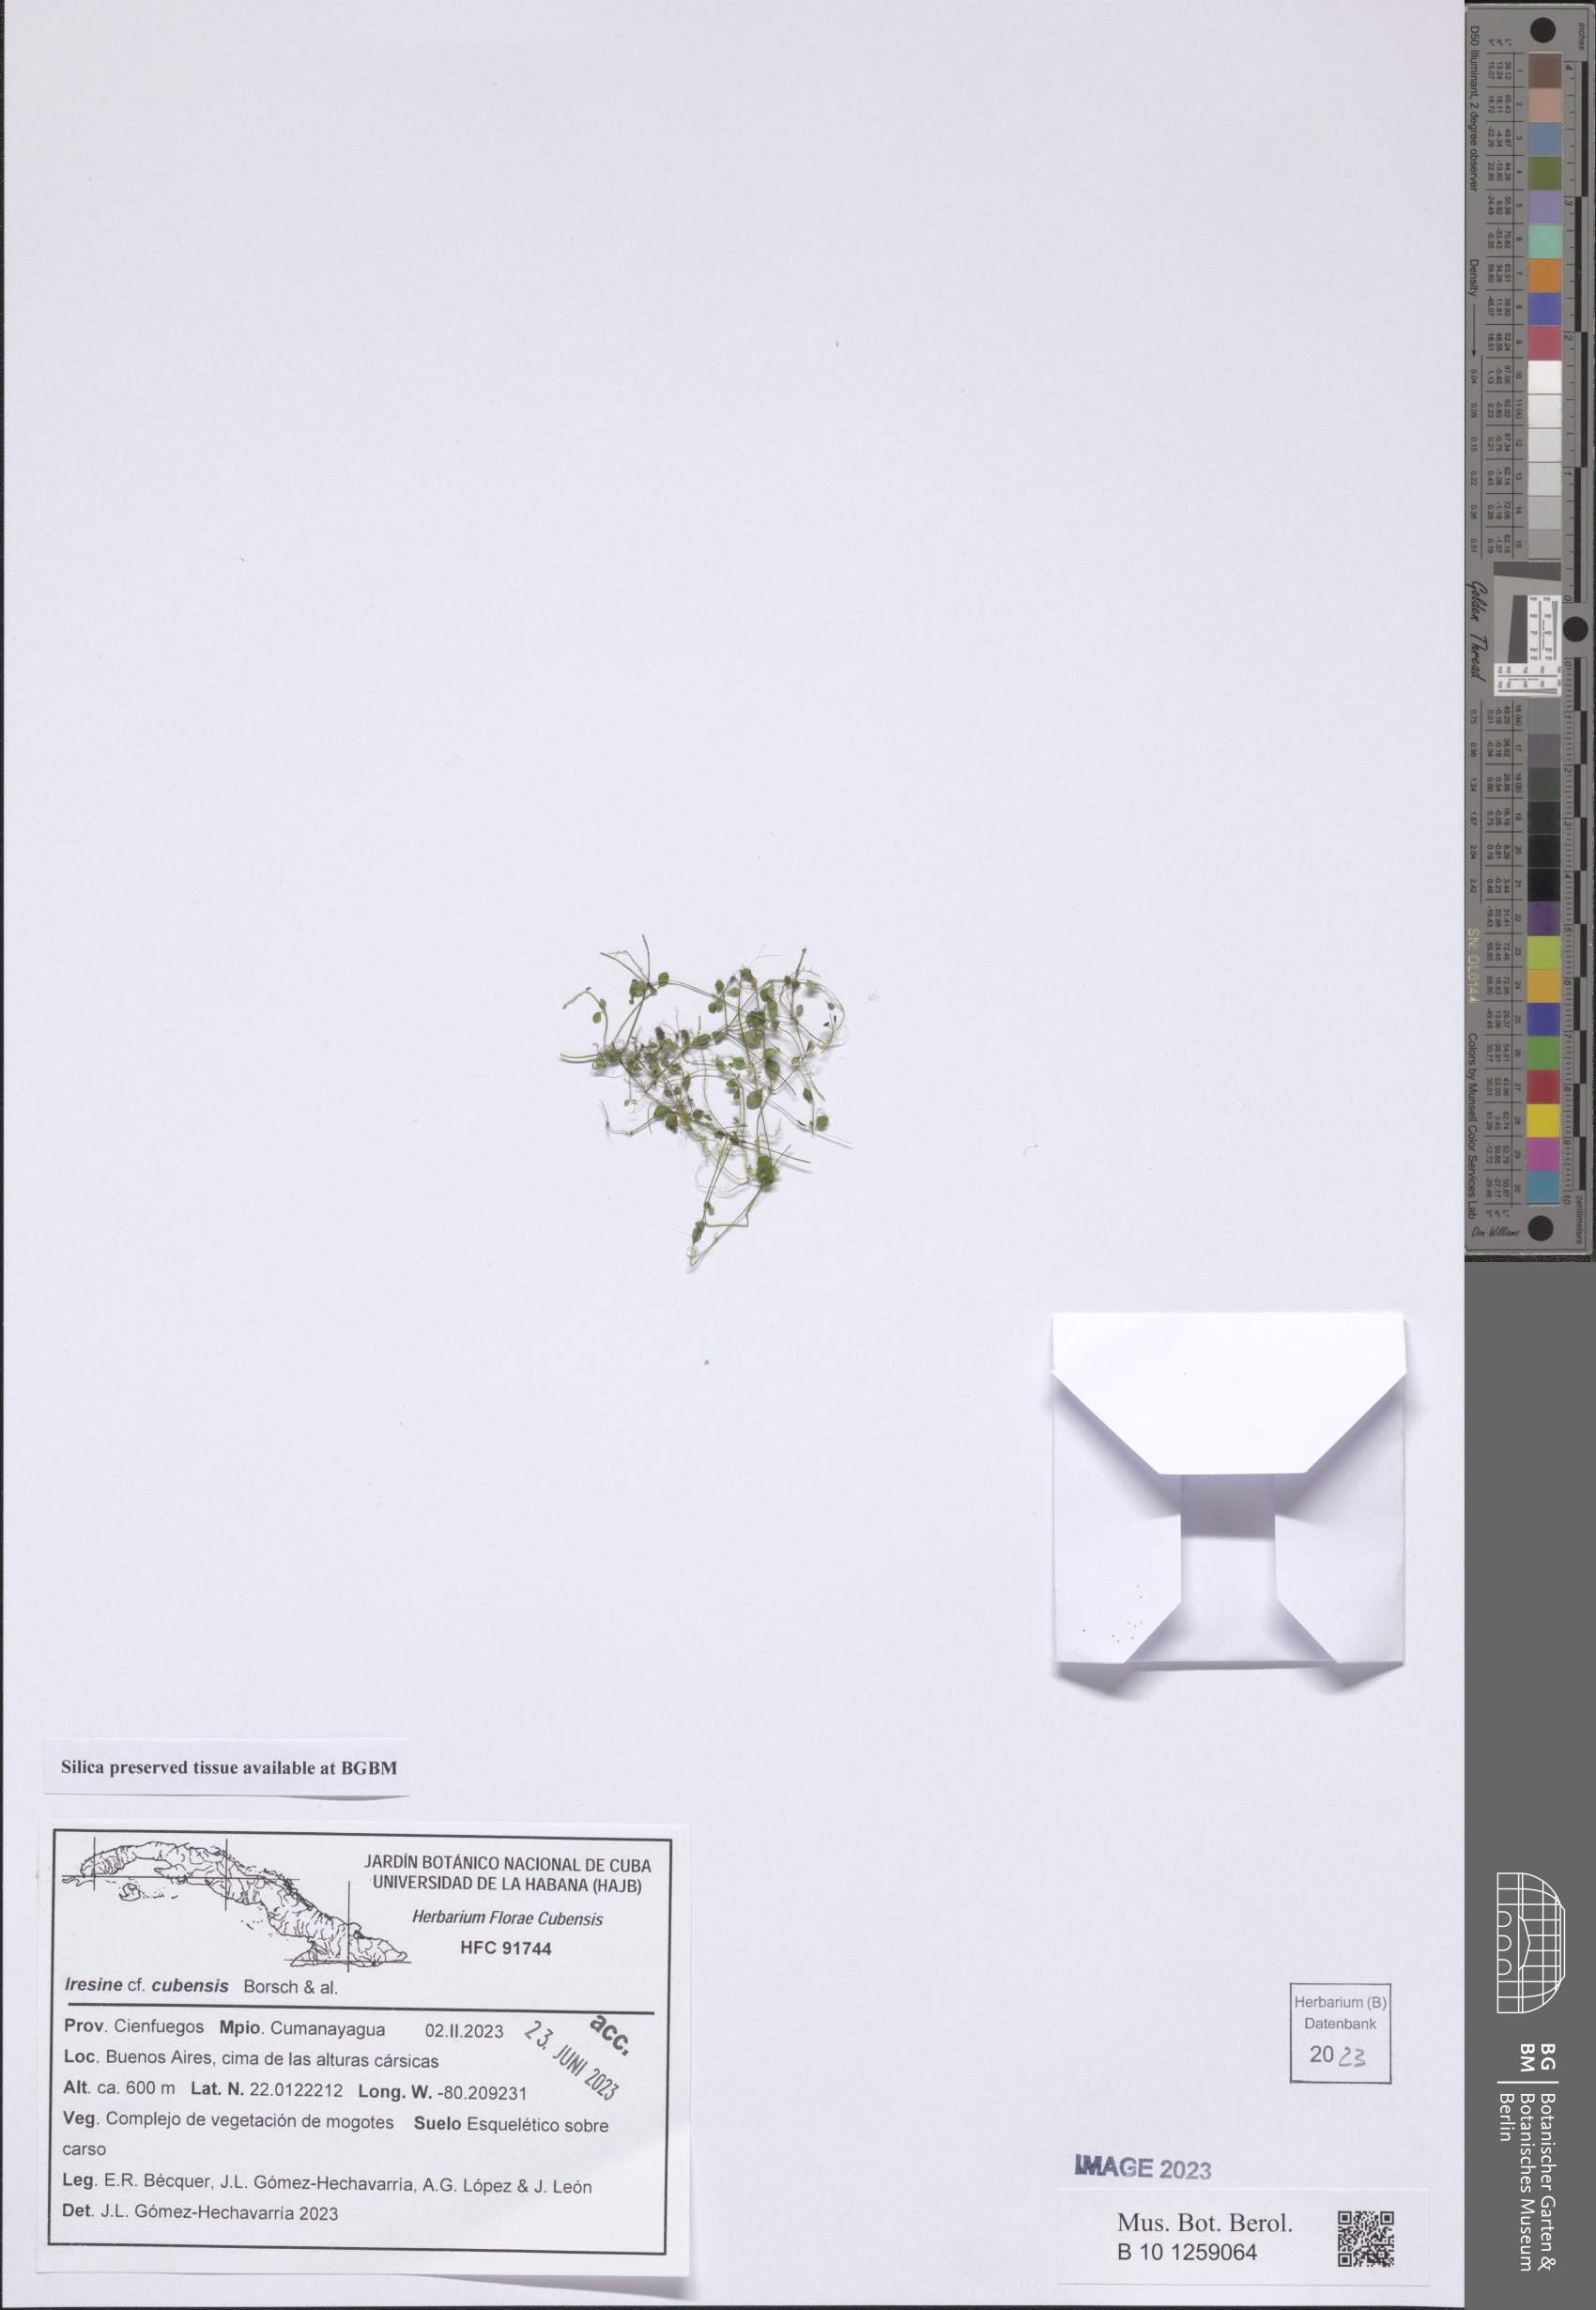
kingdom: Plantae
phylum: Tracheophyta
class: Magnoliopsida
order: Caryophyllales
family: Amaranthaceae
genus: Iresine
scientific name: Iresine cubensis
